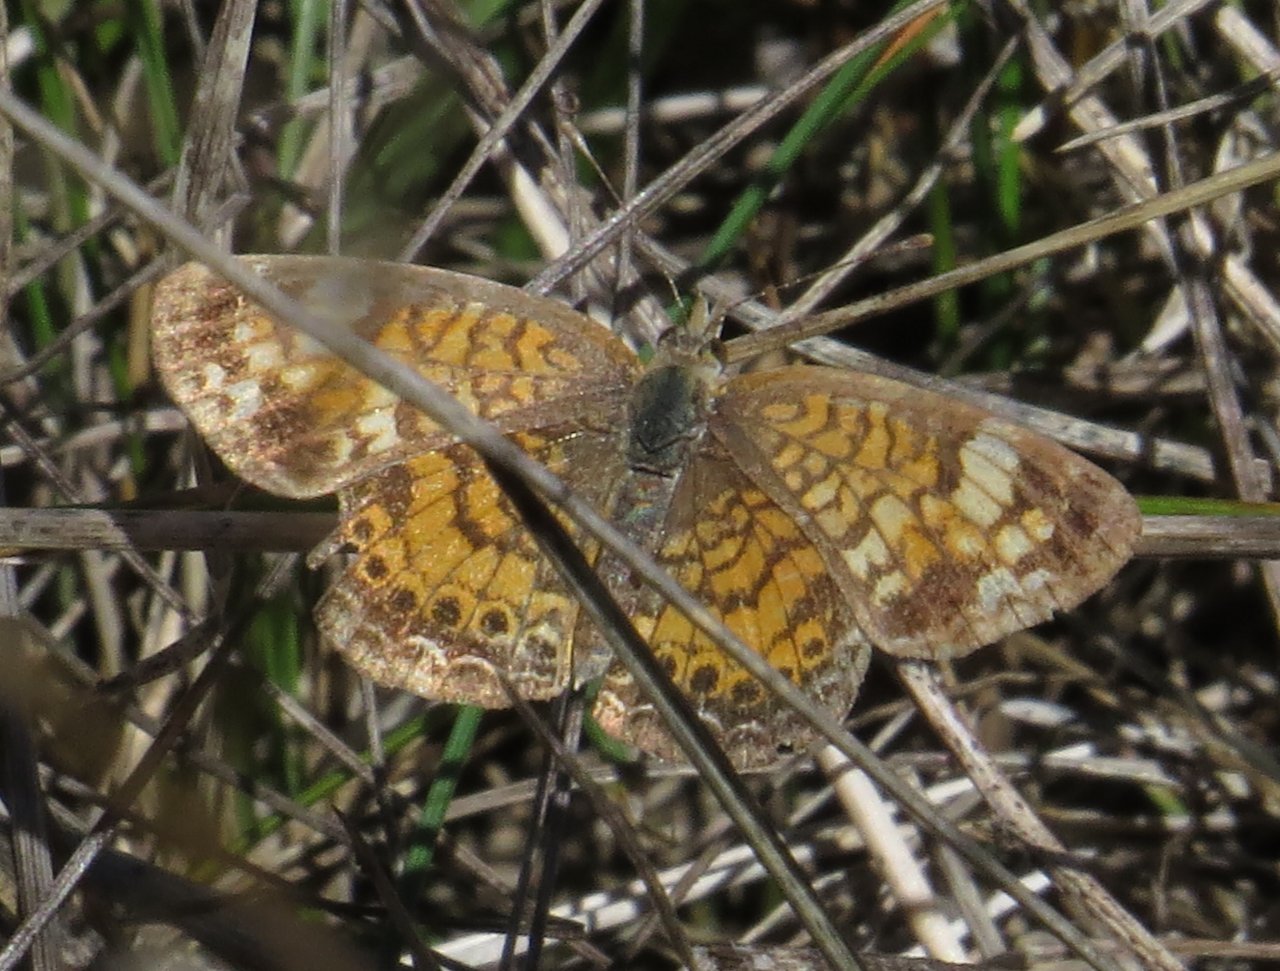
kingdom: Animalia
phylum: Arthropoda
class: Insecta
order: Lepidoptera
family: Nymphalidae
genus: Phyciodes
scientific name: Phyciodes tharos
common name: Pearl Crescent
